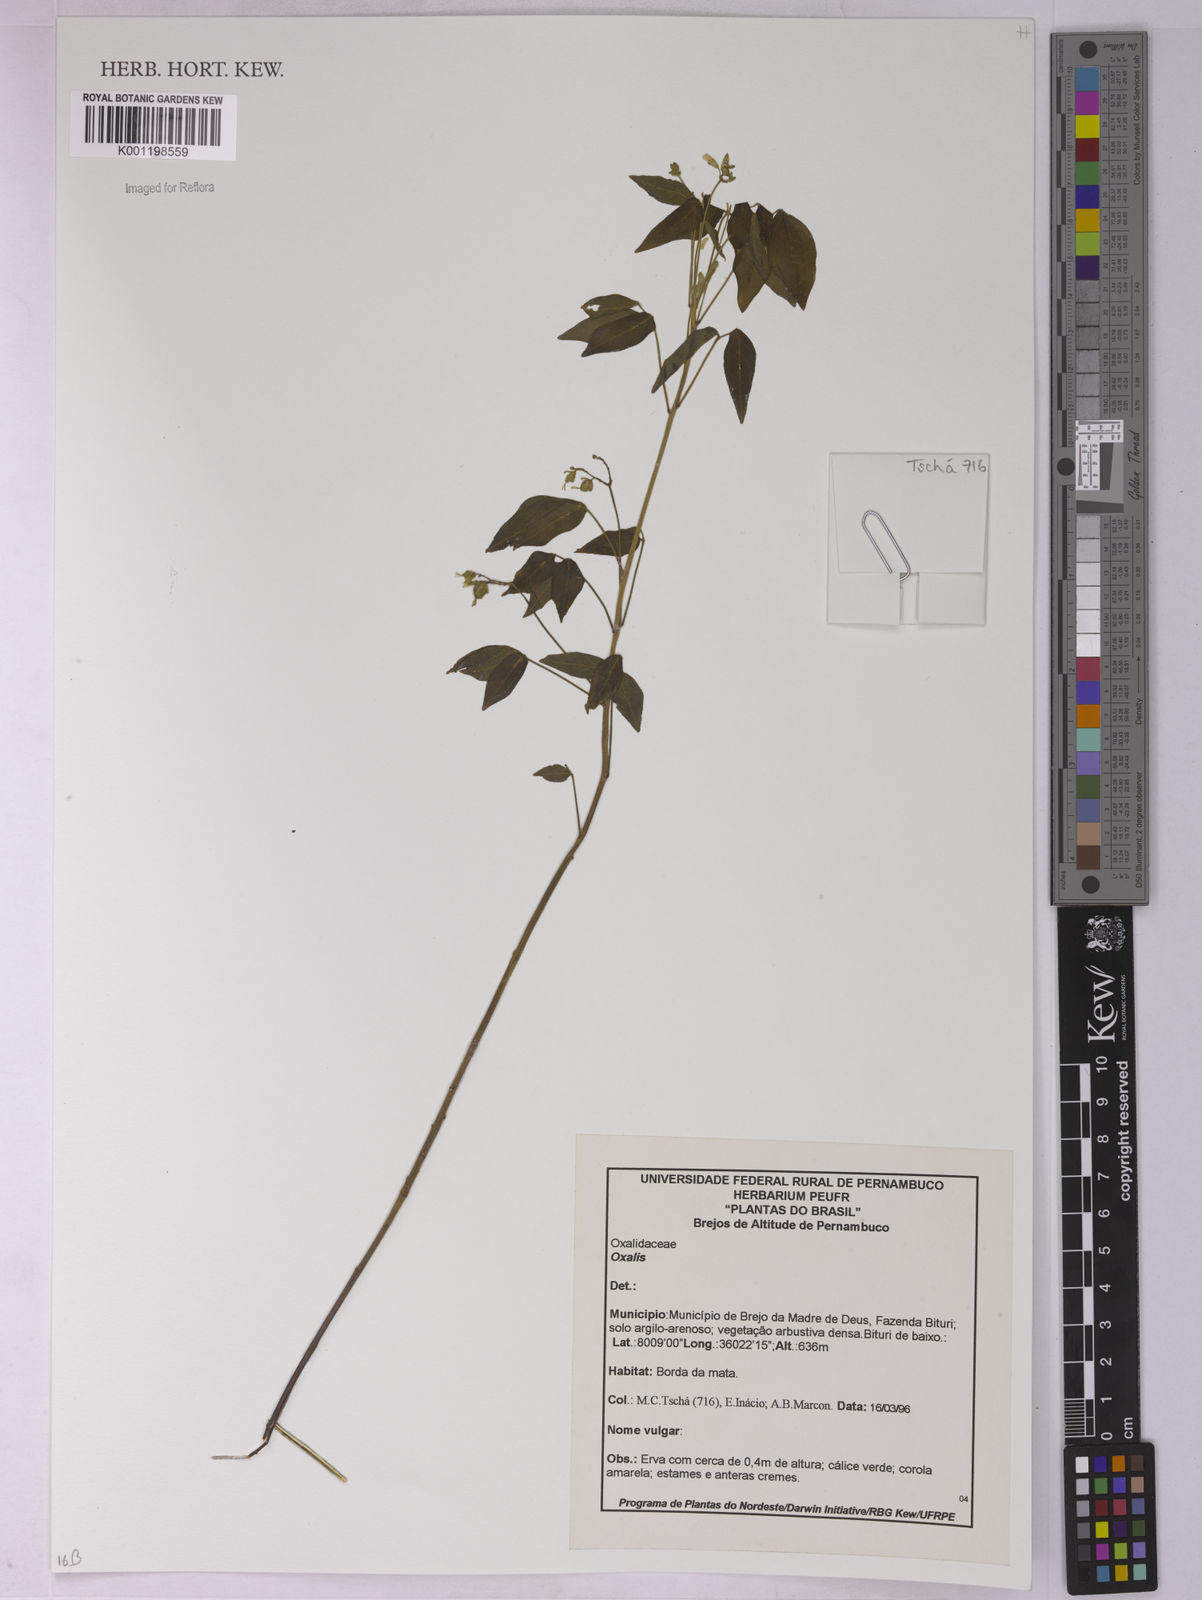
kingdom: Plantae
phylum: Tracheophyta
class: Magnoliopsida
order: Oxalidales
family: Oxalidaceae
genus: Oxalis
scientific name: Oxalis
